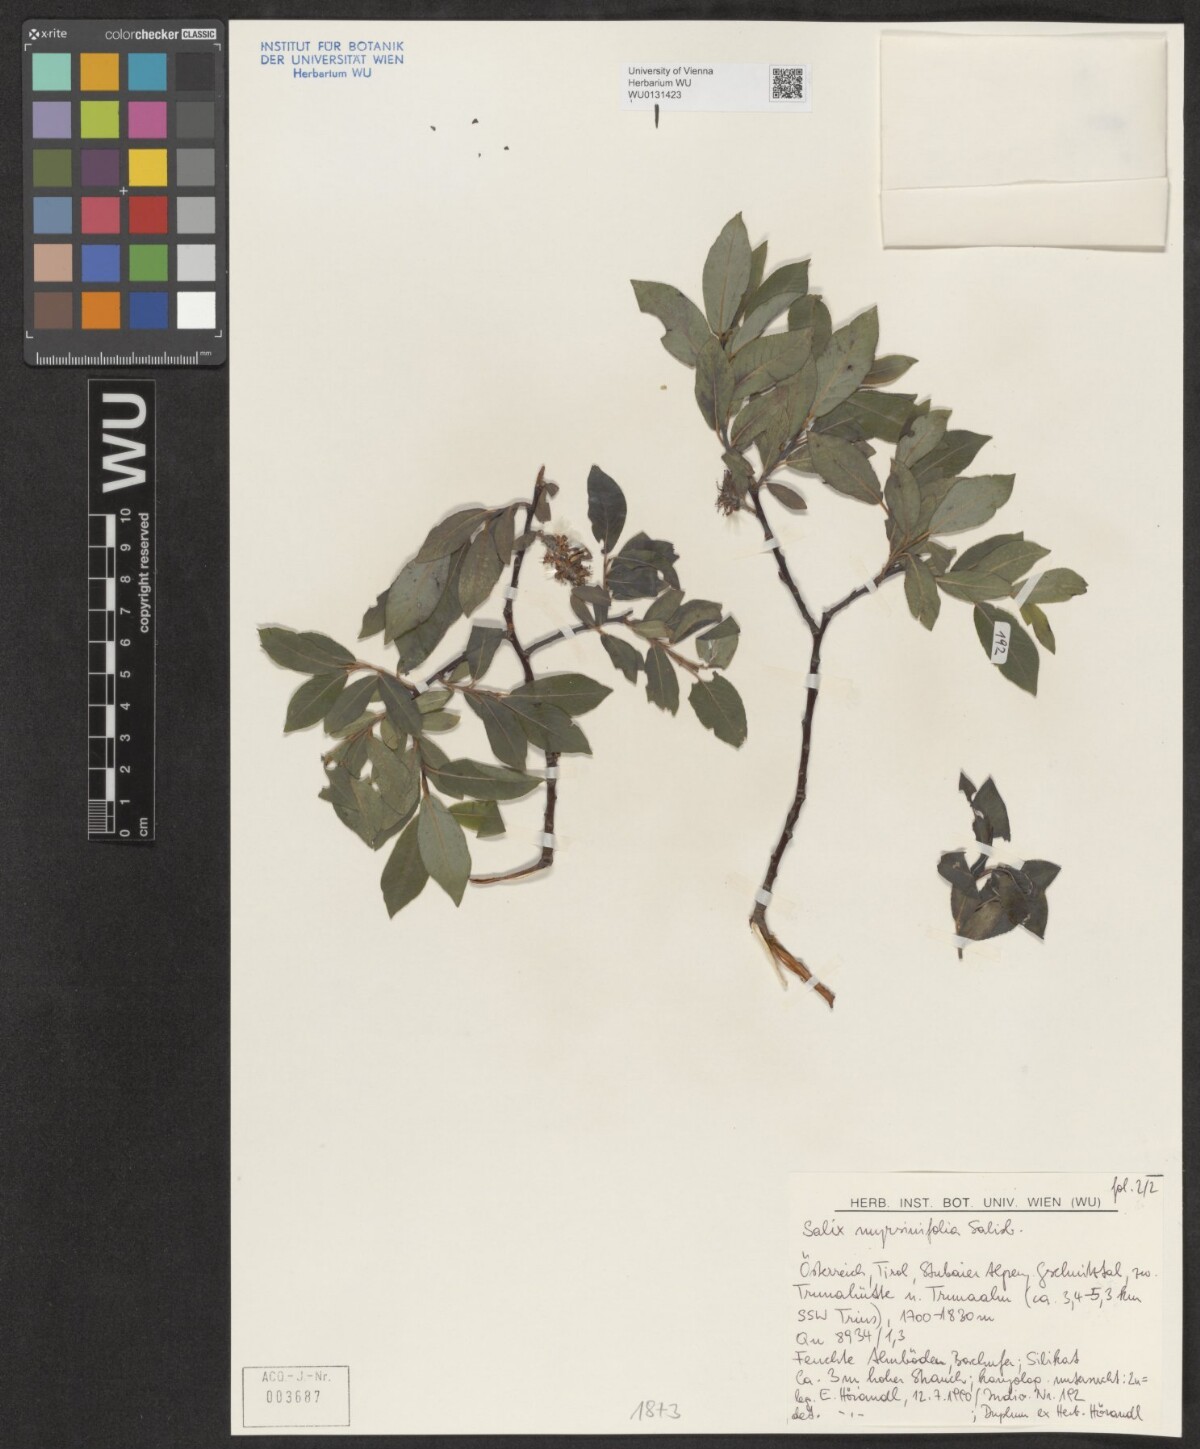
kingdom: Plantae
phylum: Tracheophyta
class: Magnoliopsida
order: Malpighiales
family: Salicaceae
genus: Salix
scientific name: Salix myrsinifolia
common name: Dark-leaved willow
